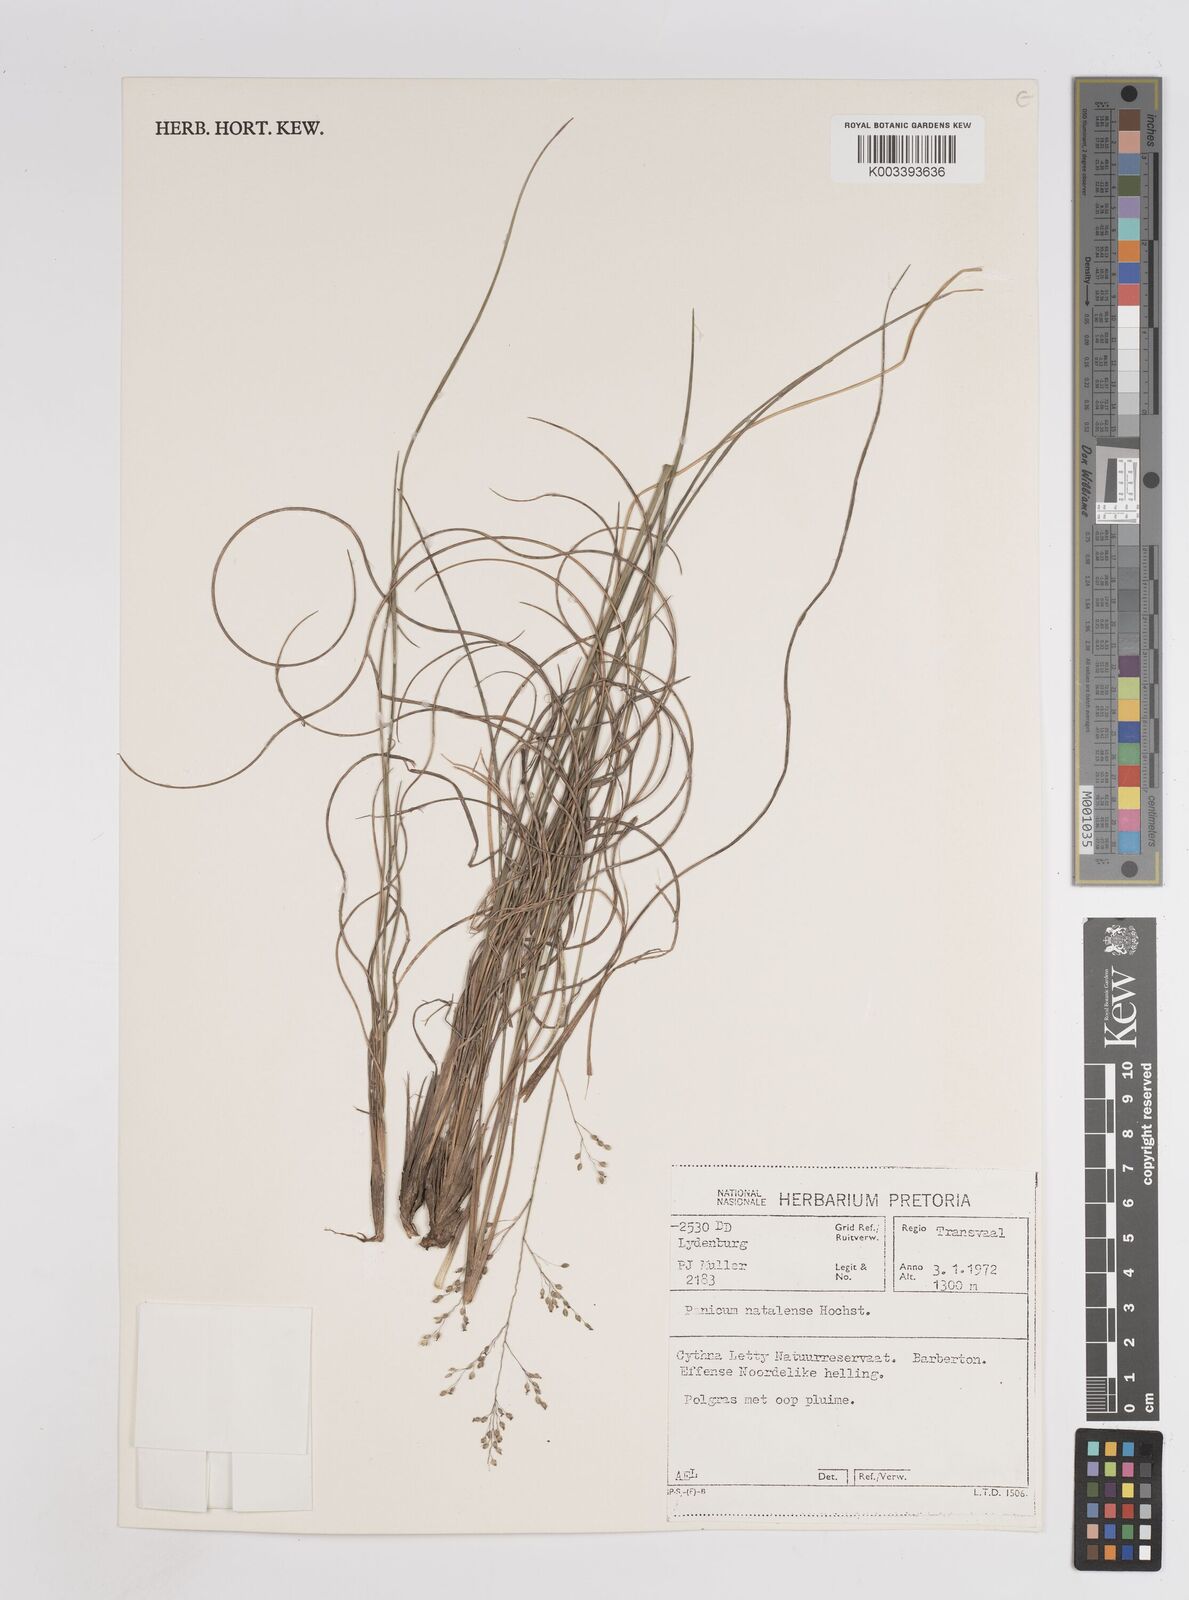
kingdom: Plantae
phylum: Tracheophyta
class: Liliopsida
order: Poales
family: Poaceae
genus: Trichanthecium
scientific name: Trichanthecium natalense
